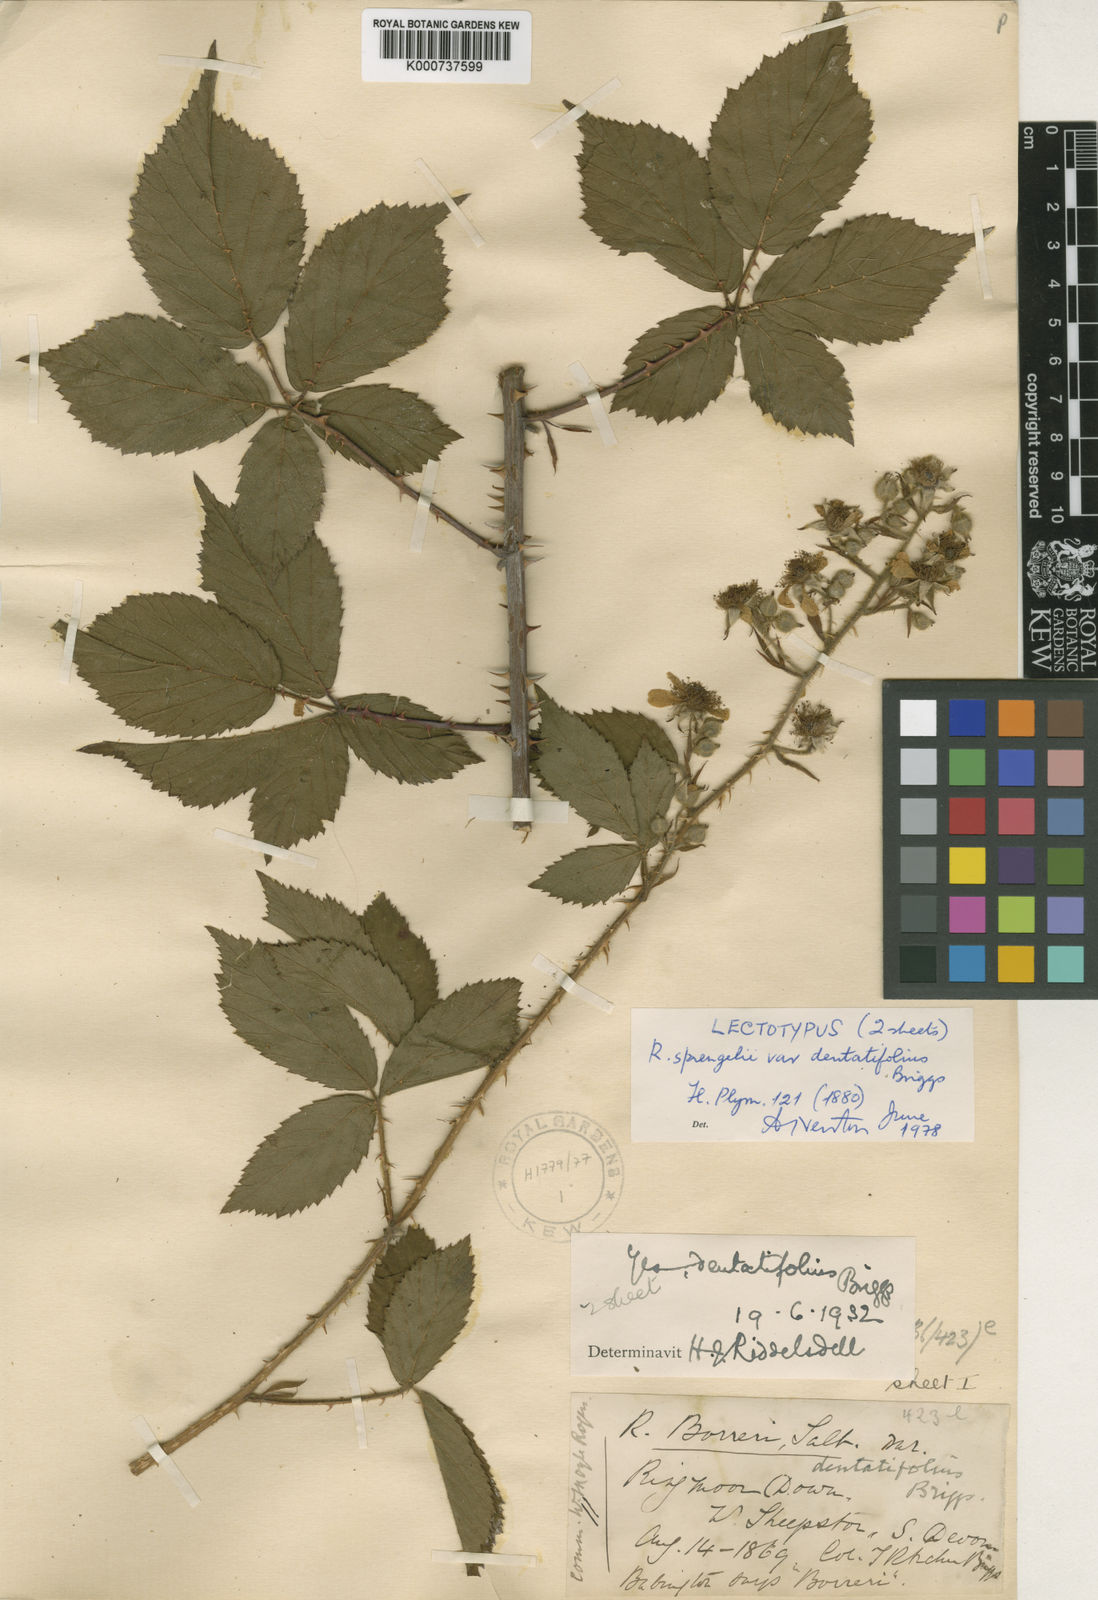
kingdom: Plantae
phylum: Tracheophyta
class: Magnoliopsida
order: Rosales
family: Rosaceae
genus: Rubus
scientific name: Rubus
